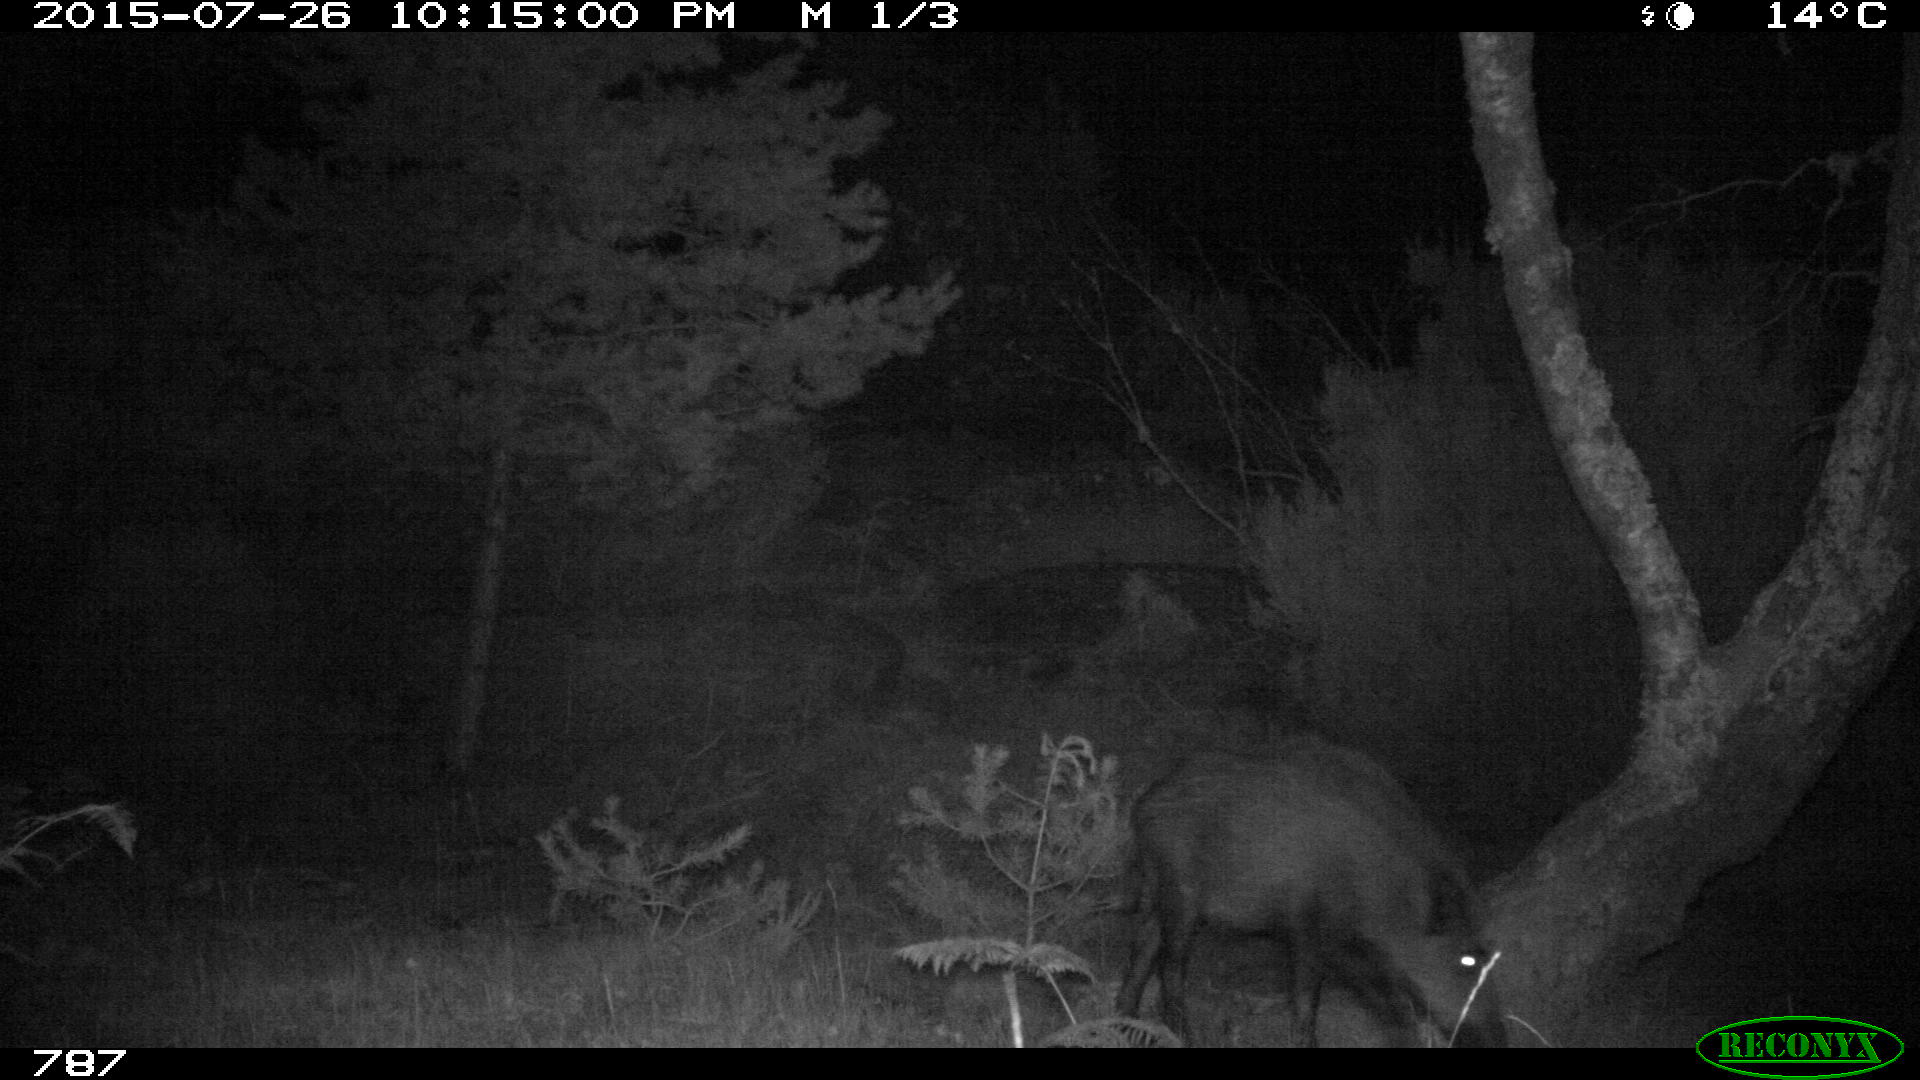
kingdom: Animalia
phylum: Chordata
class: Mammalia
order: Artiodactyla
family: Suidae
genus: Sus
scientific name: Sus scrofa
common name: Wild boar
